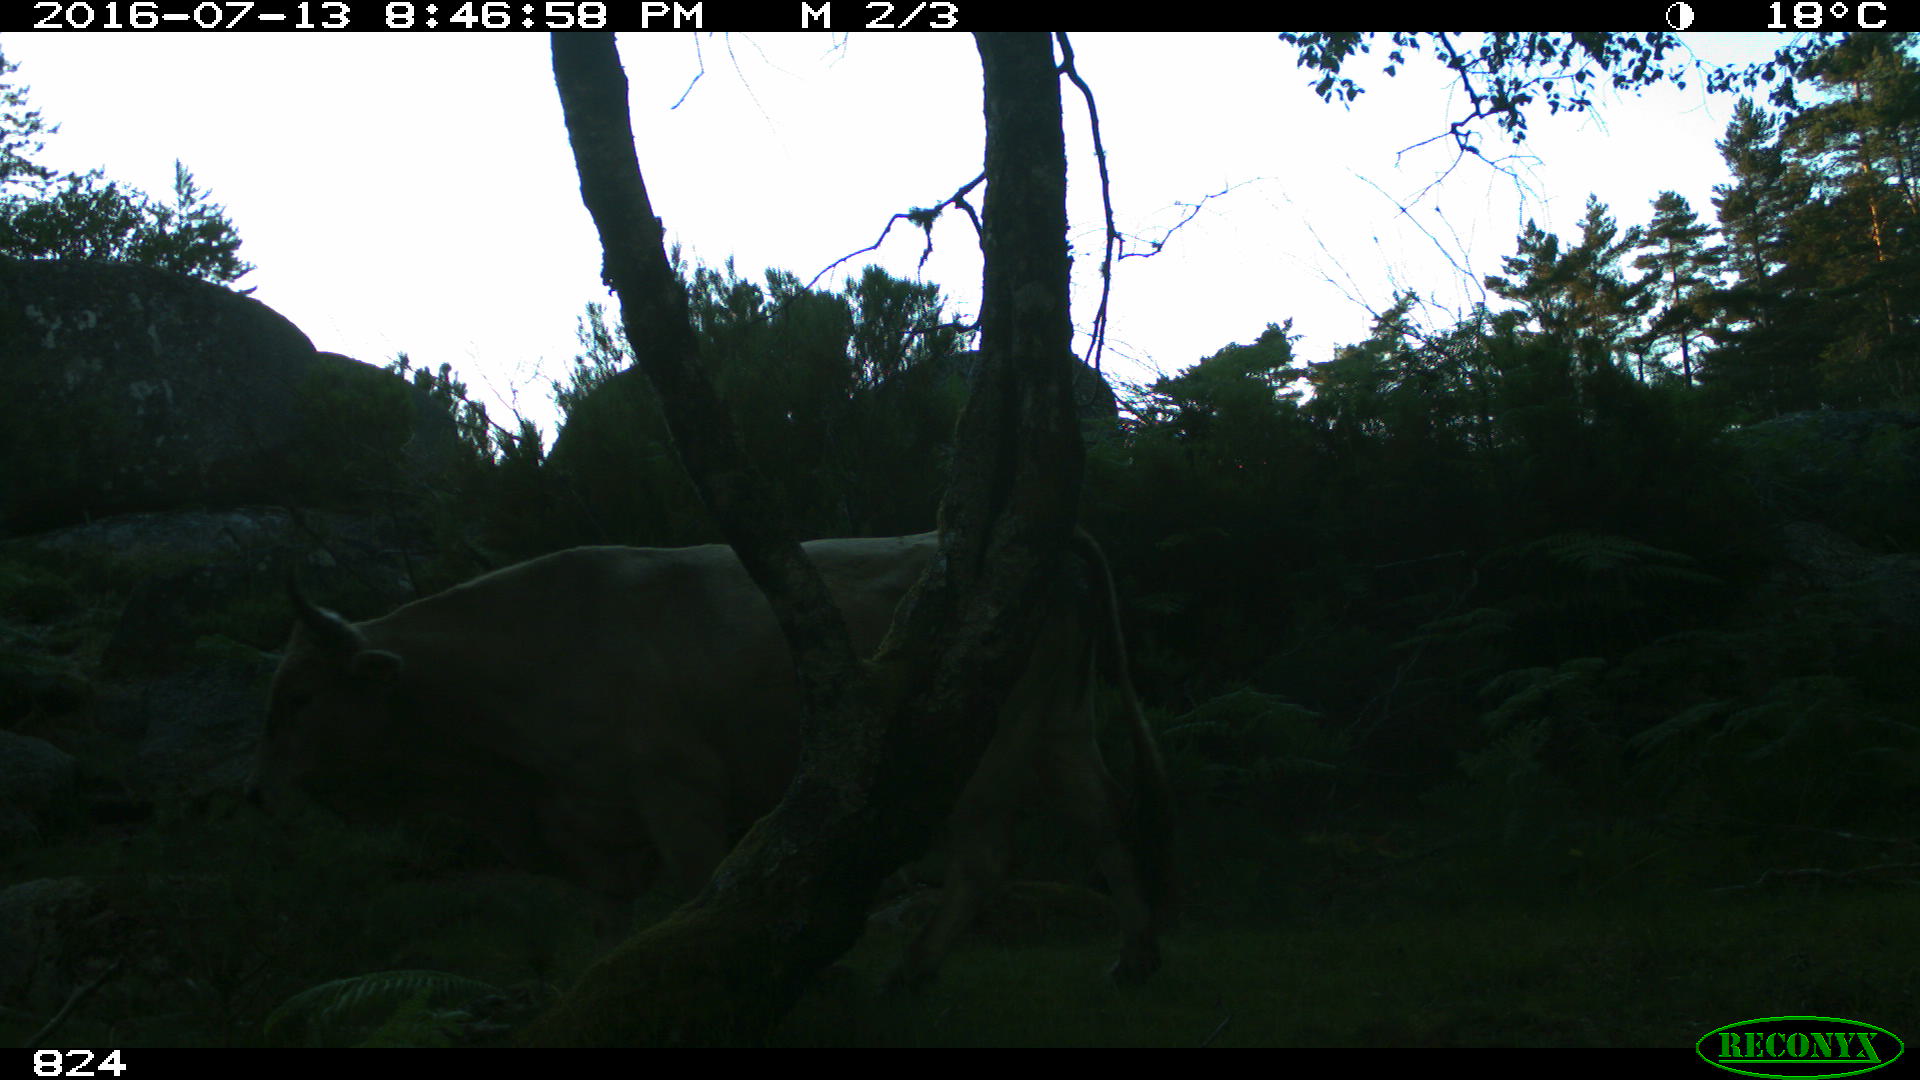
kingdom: Animalia
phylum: Chordata
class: Mammalia
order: Artiodactyla
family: Bovidae
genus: Bos
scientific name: Bos taurus
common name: Domesticated cattle
